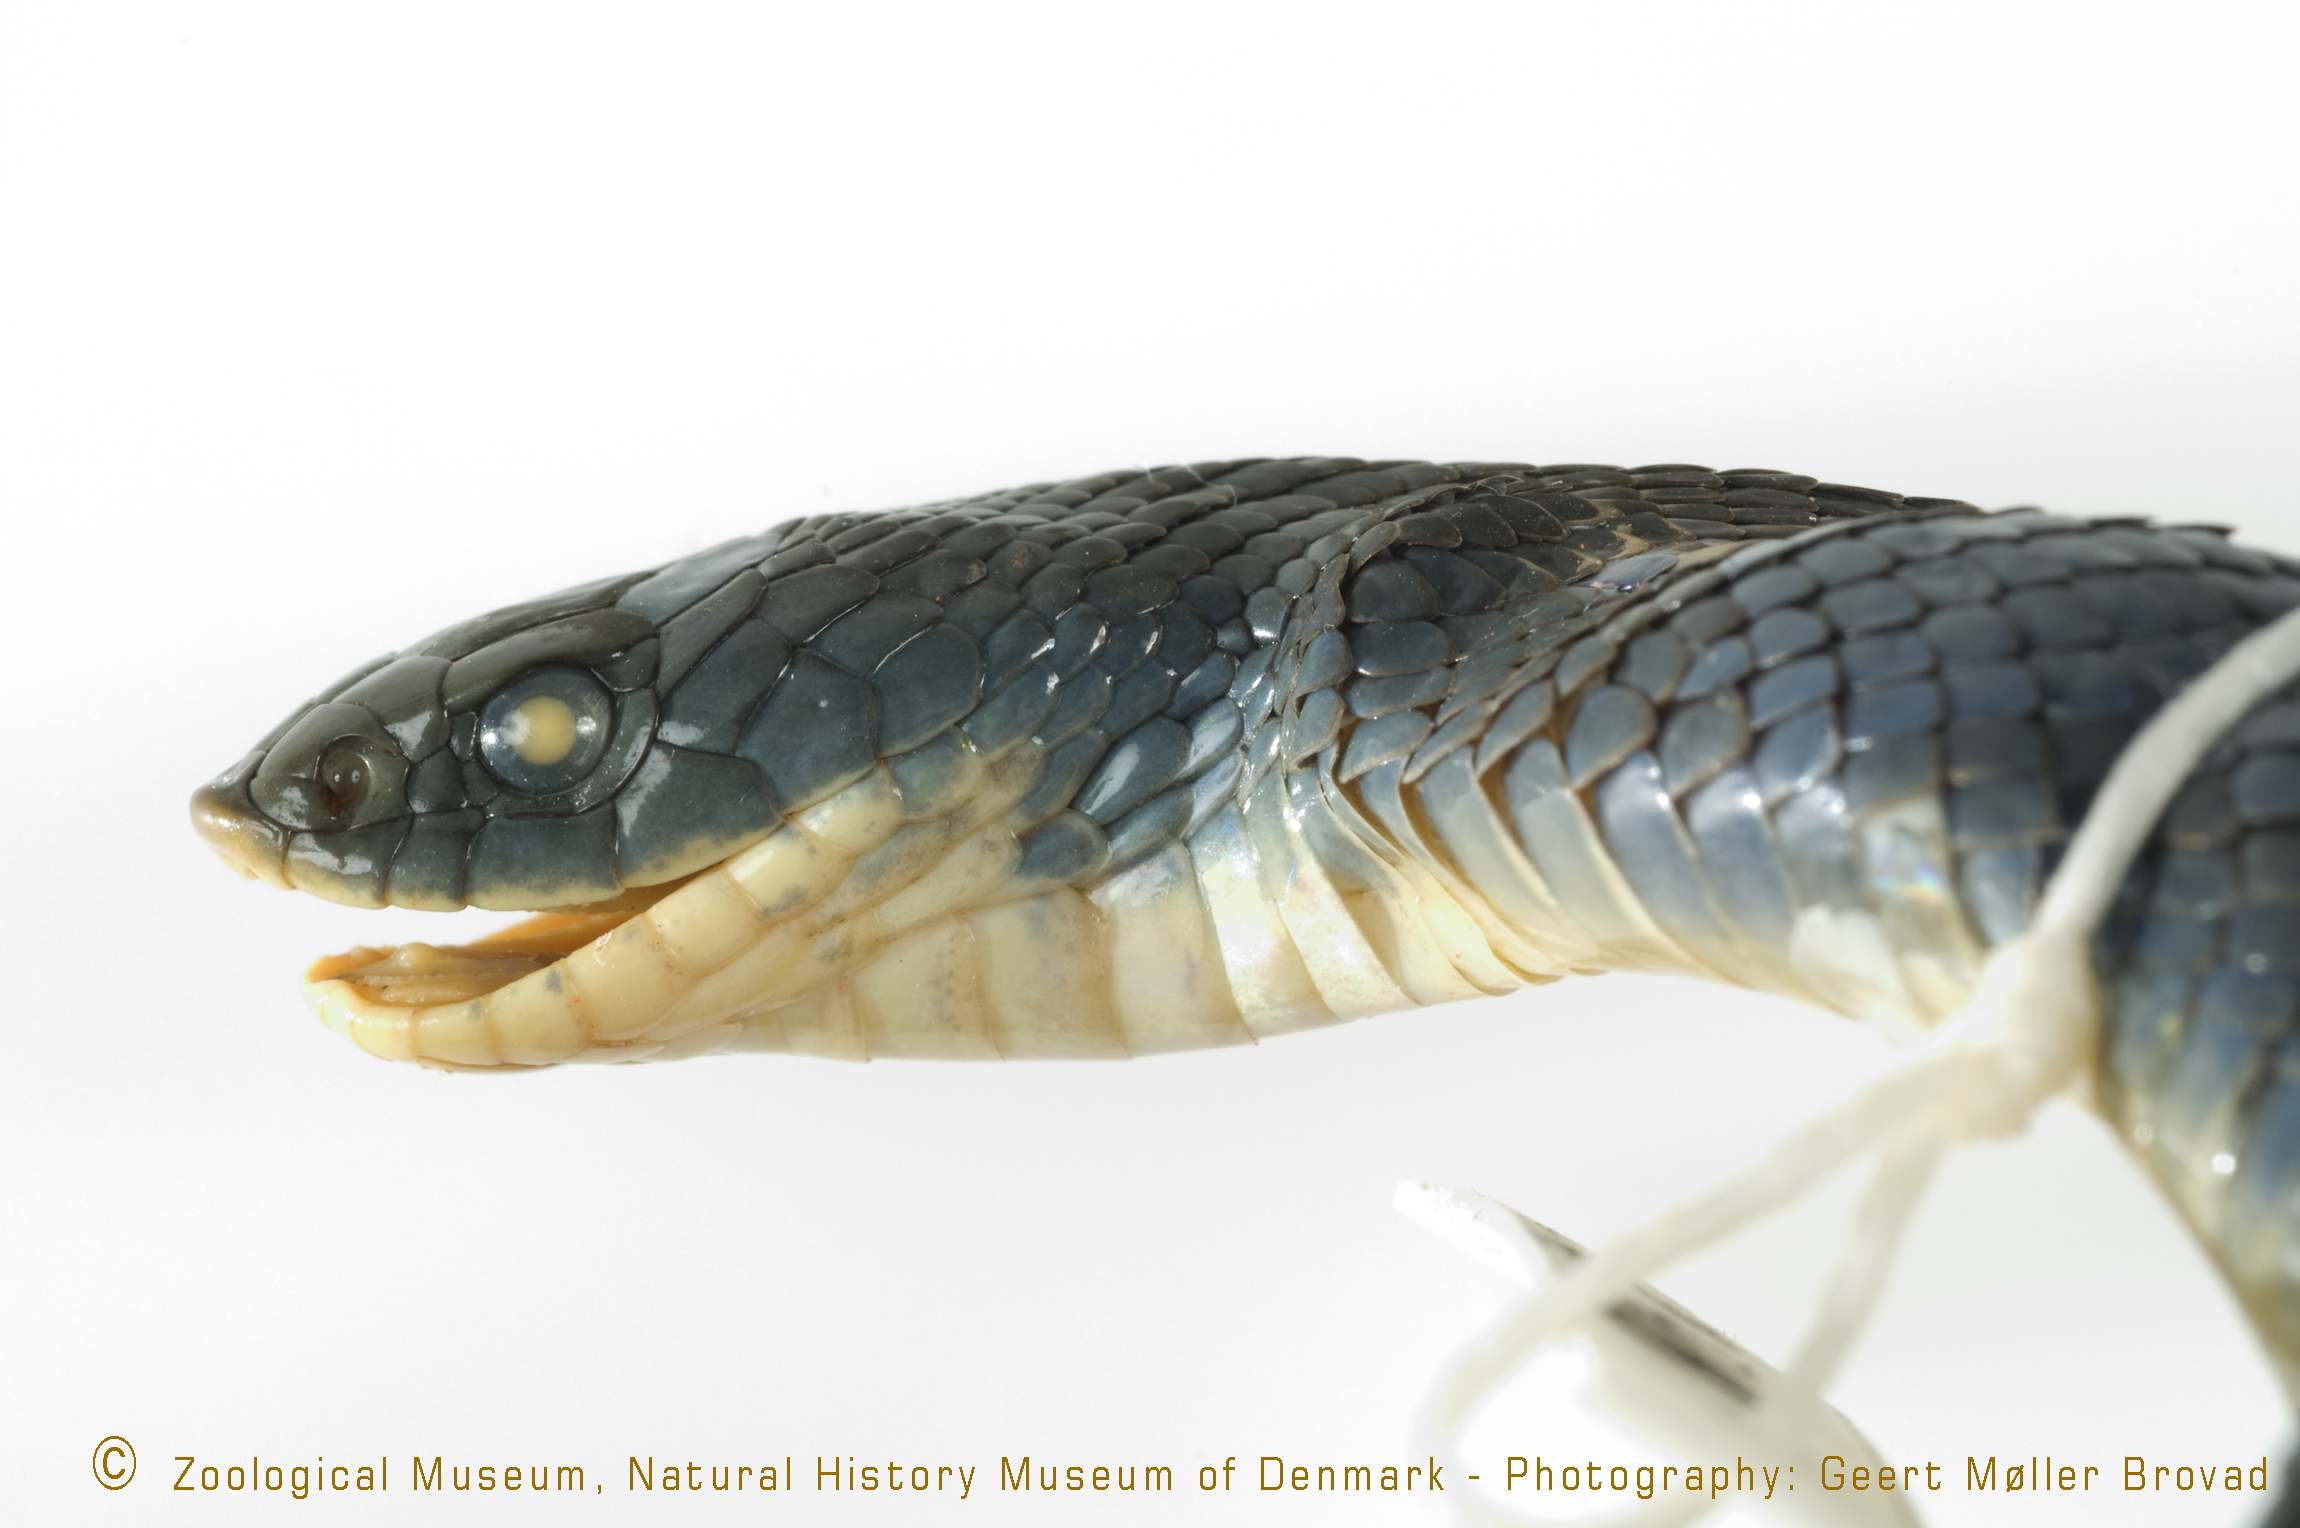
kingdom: Animalia
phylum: Chordata
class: Squamata
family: Viperidae
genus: Causus
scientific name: Causus resimus
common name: Green night adder
